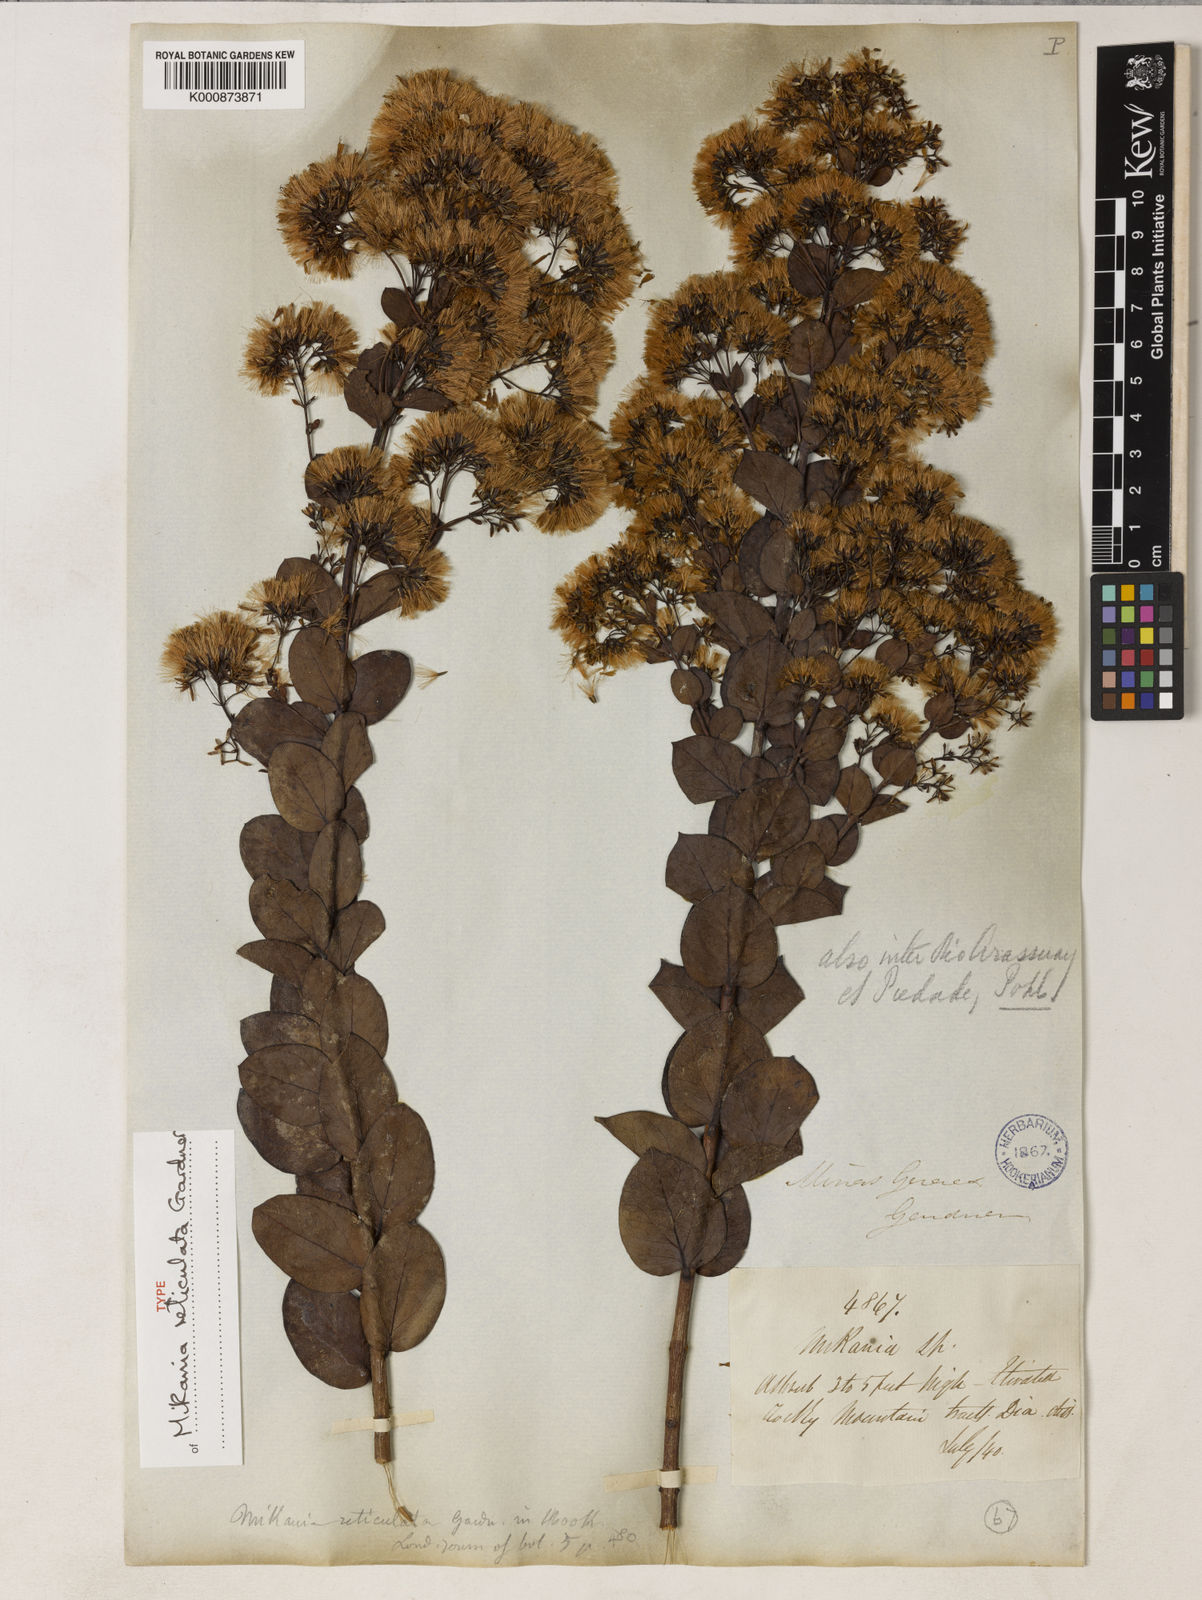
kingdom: Plantae
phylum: Tracheophyta
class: Magnoliopsida
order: Asterales
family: Asteraceae
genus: Mikania
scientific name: Mikania reticulata
